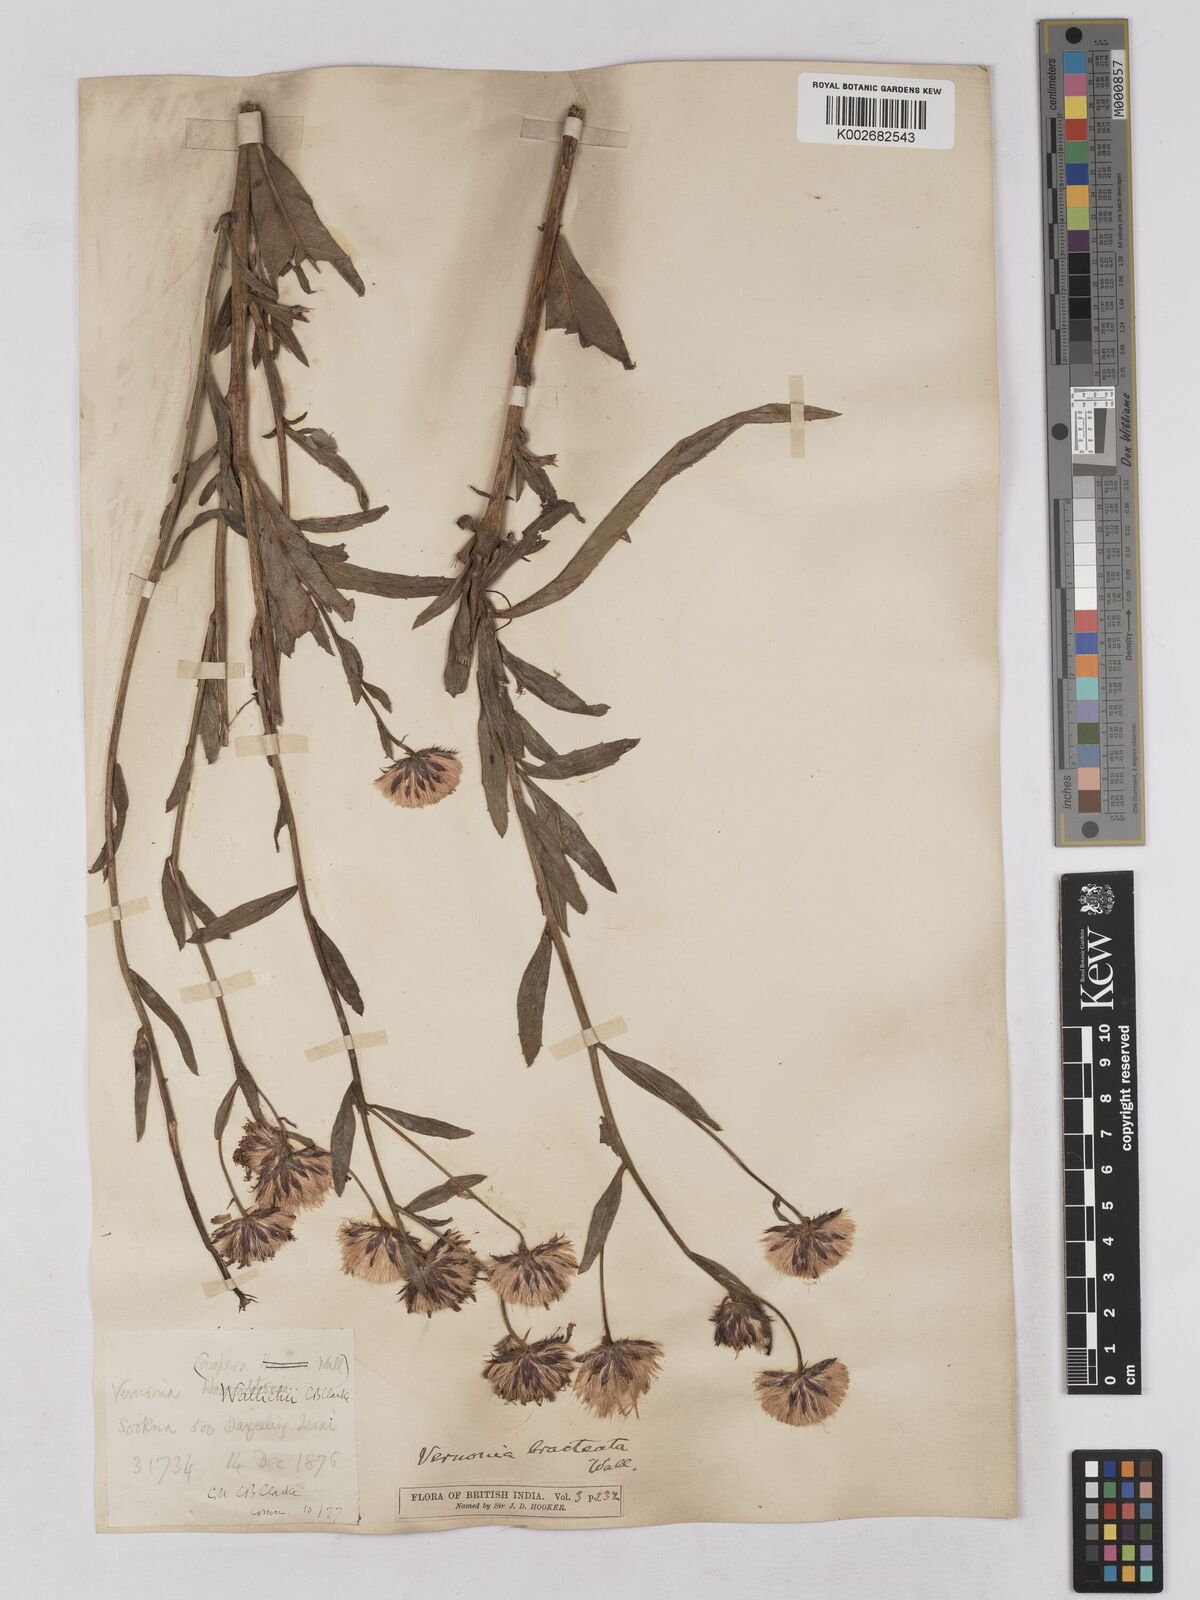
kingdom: Plantae
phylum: Tracheophyta
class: Magnoliopsida
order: Asterales
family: Asteraceae
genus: Acilepis
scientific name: Acilepis silhetensis
